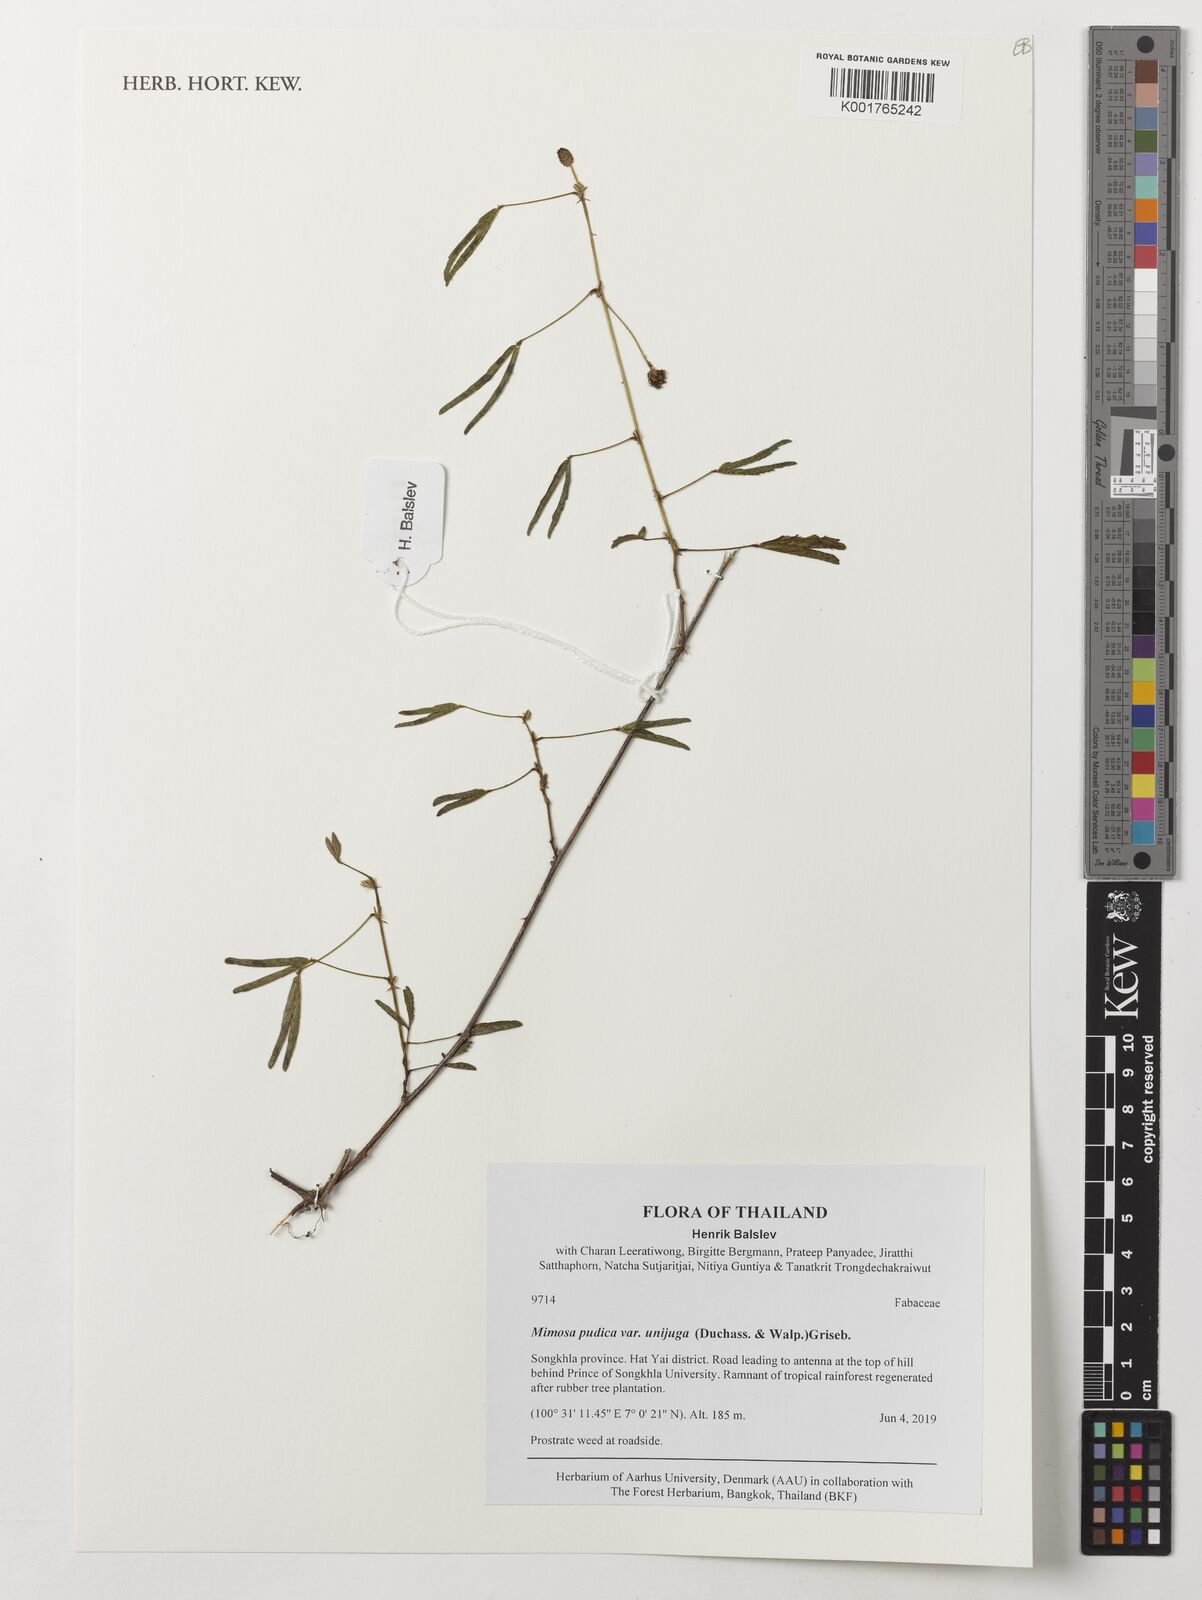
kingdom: Plantae
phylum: Tracheophyta
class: Magnoliopsida
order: Fabales
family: Fabaceae
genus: Mimosa
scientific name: Mimosa pudica
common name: Sensitive plant
